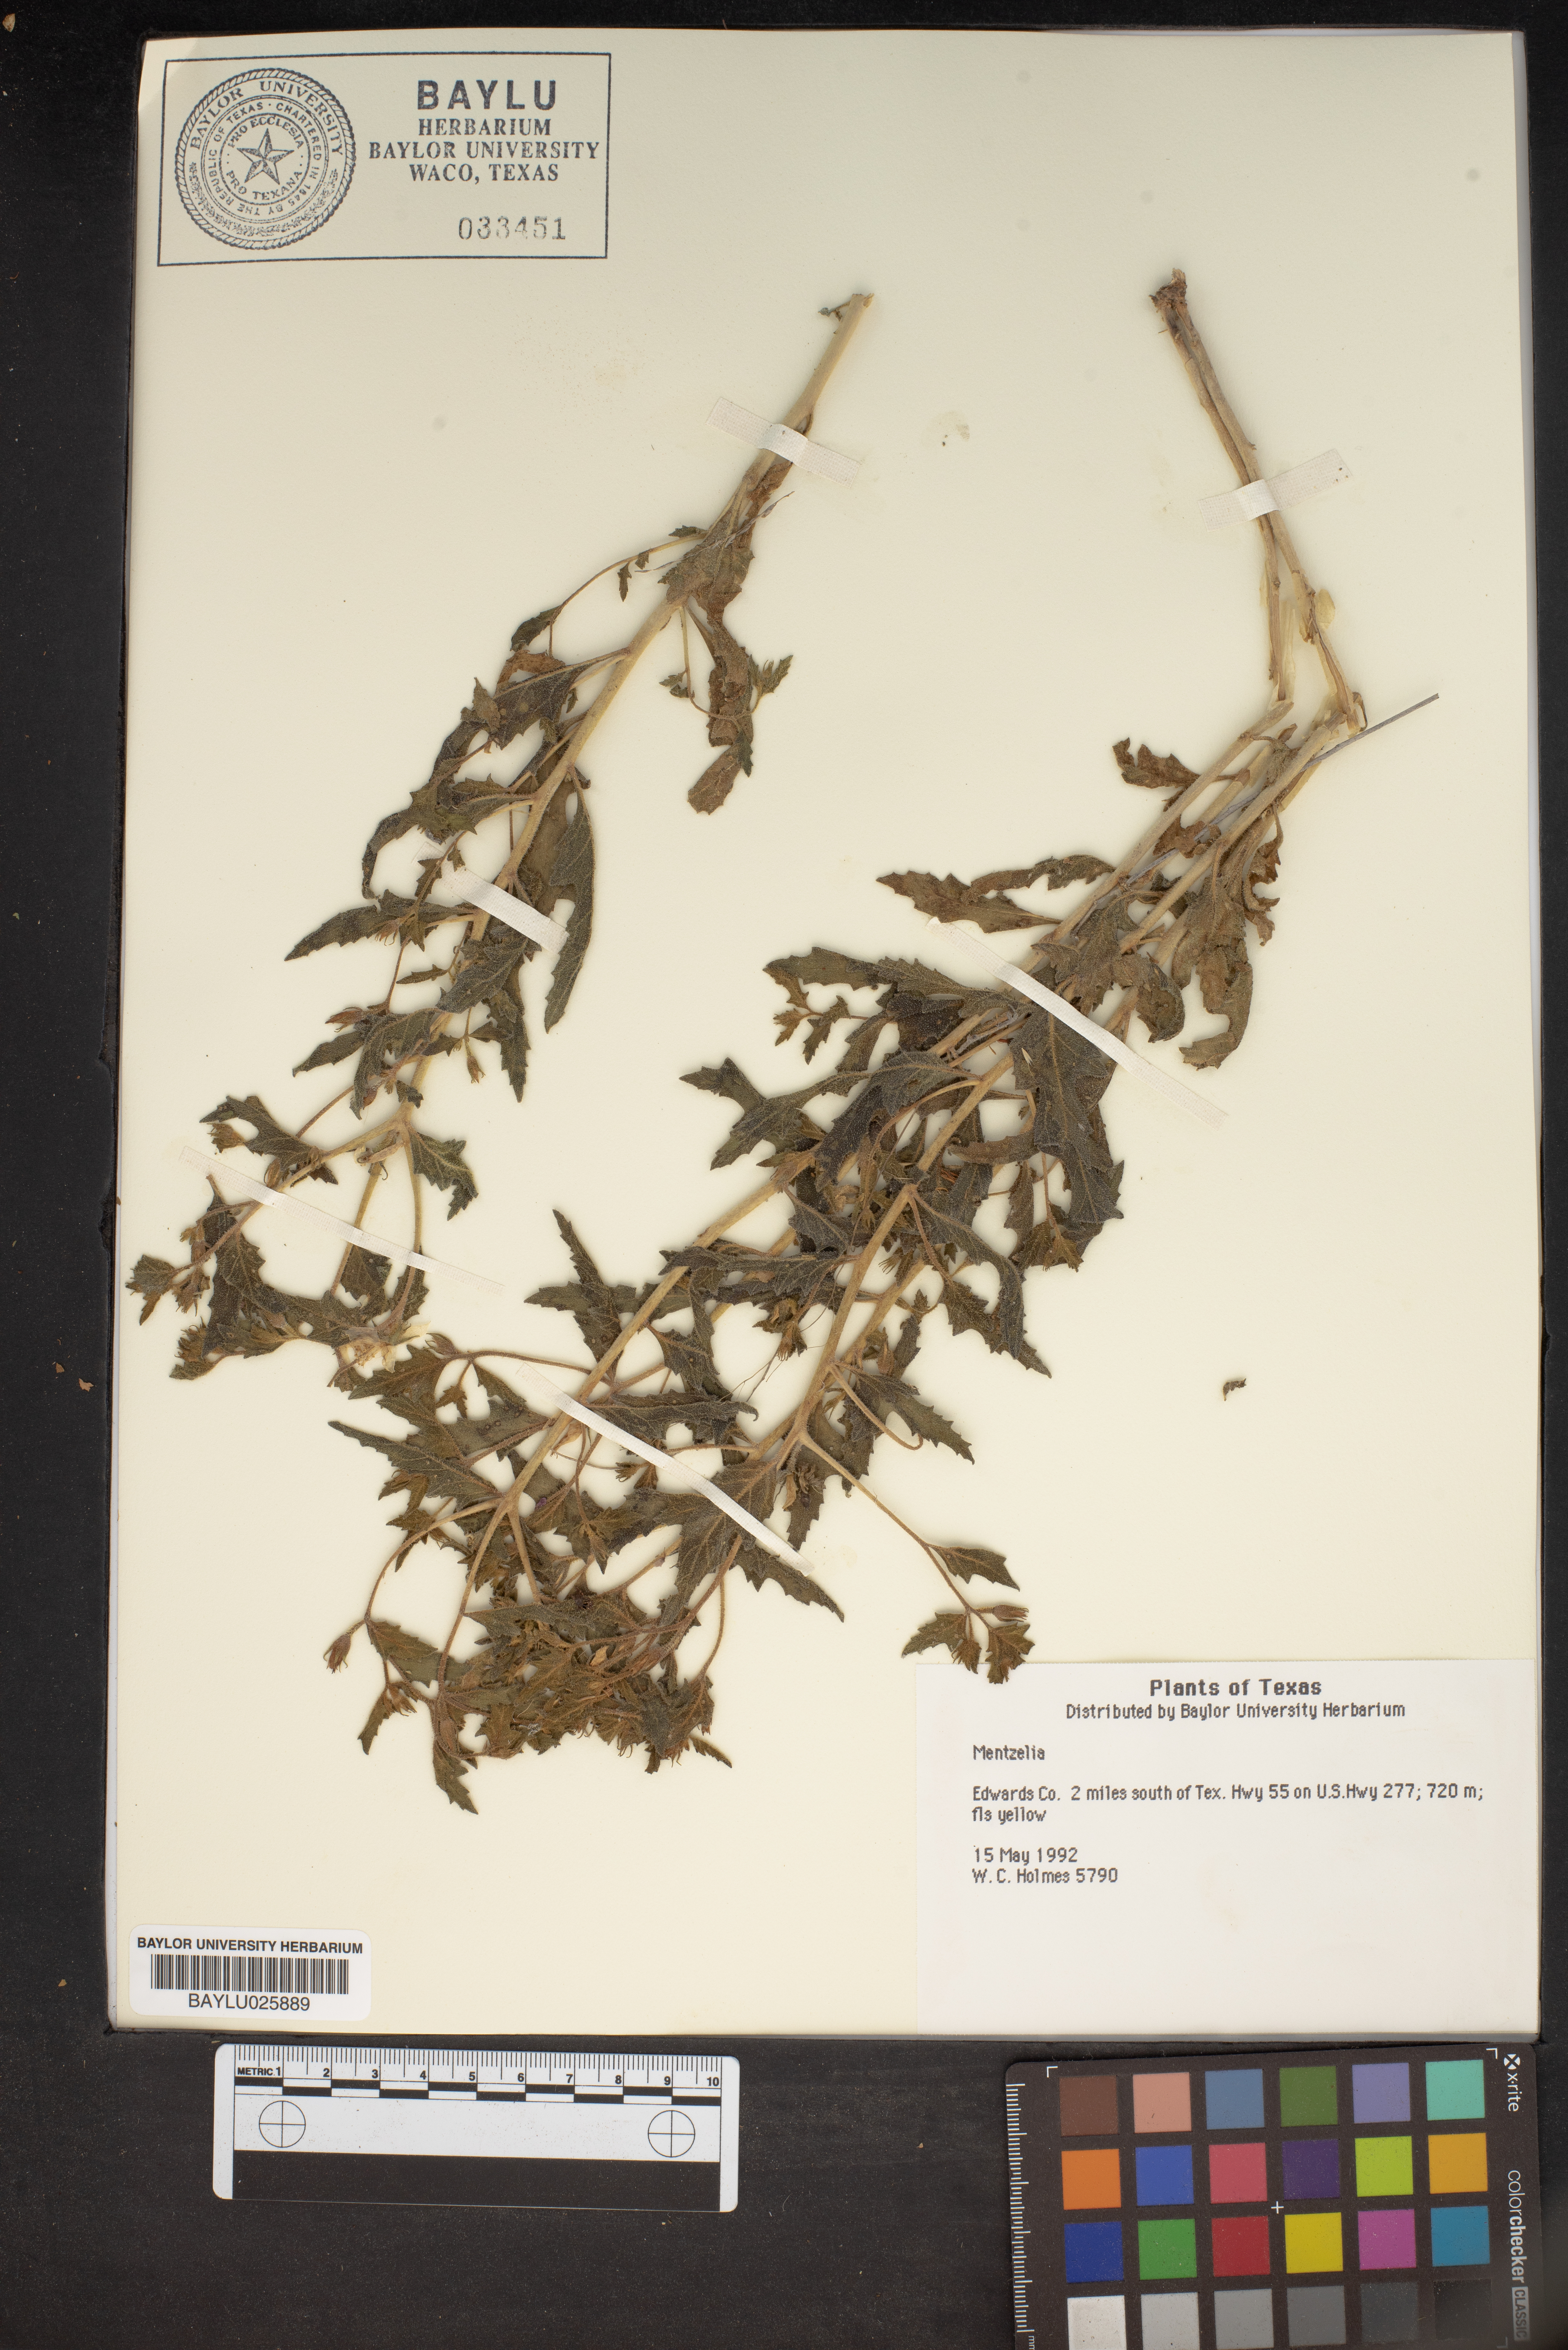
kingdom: Plantae
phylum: Tracheophyta
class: Magnoliopsida
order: Cornales
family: Loasaceae
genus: Mentzelia
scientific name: Mentzelia
